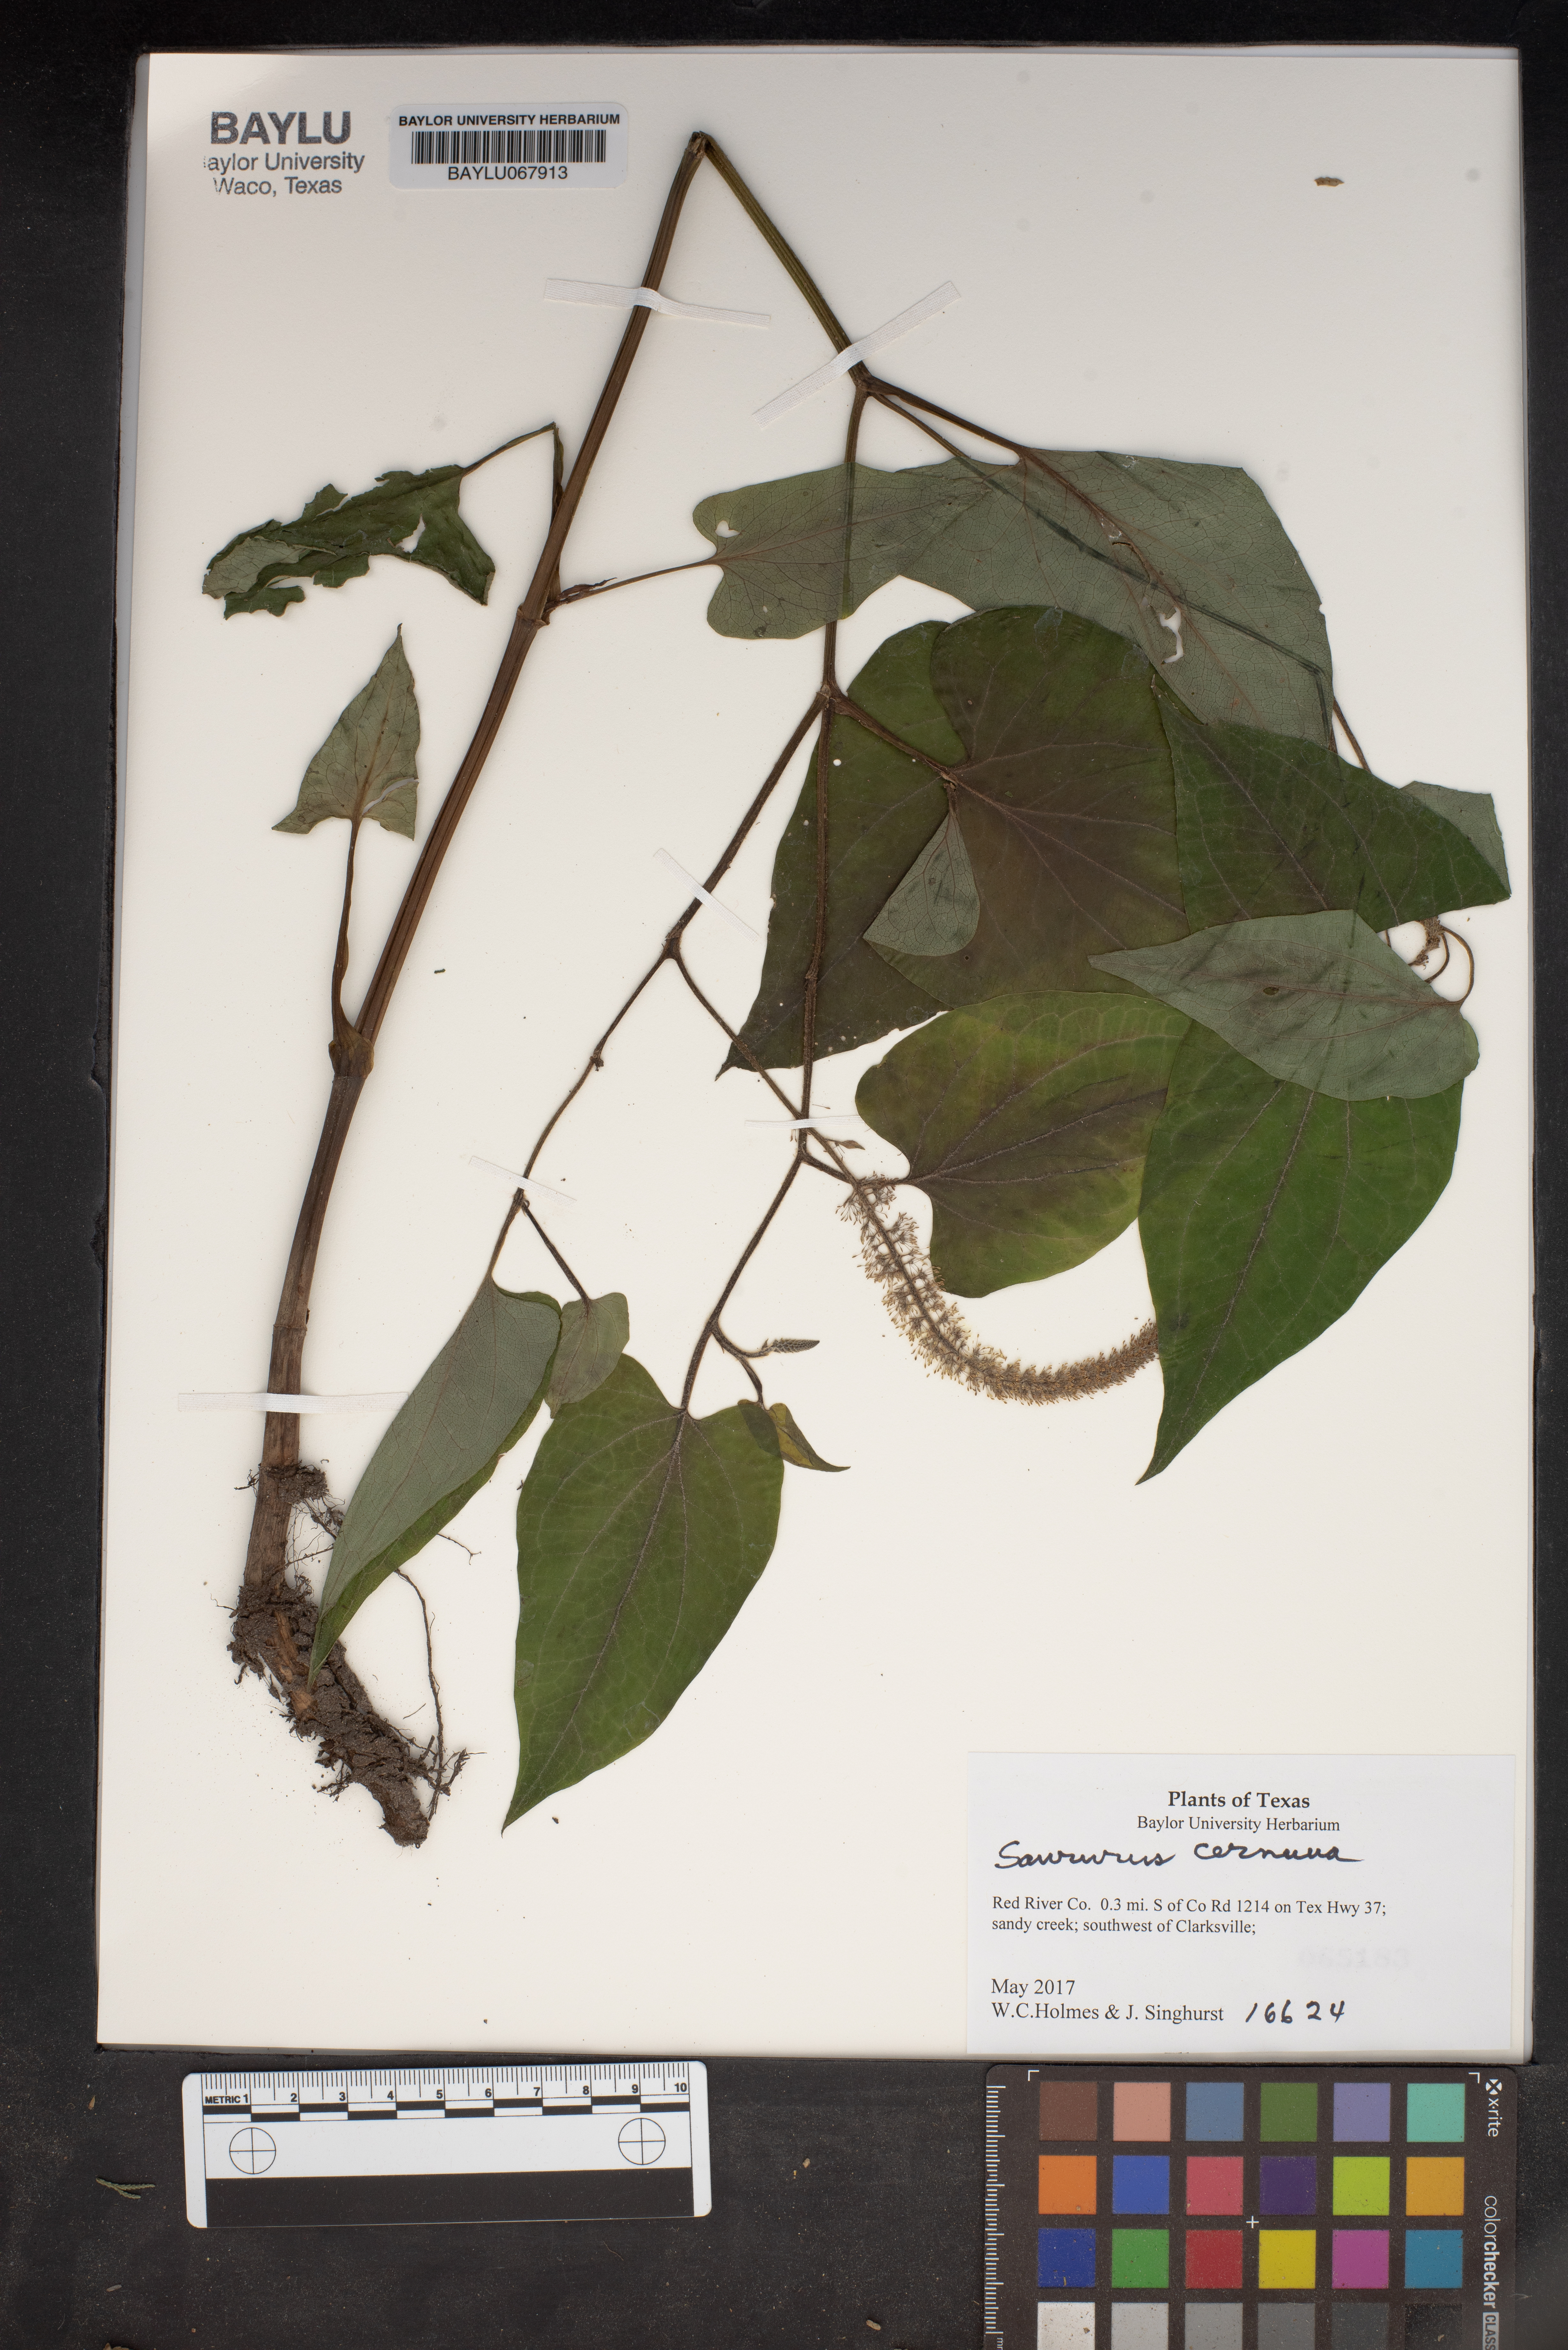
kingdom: Plantae
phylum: Tracheophyta
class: Magnoliopsida
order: Piperales
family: Saururaceae
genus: Saururus
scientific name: Saururus cernuus
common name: Lizard's-tail
